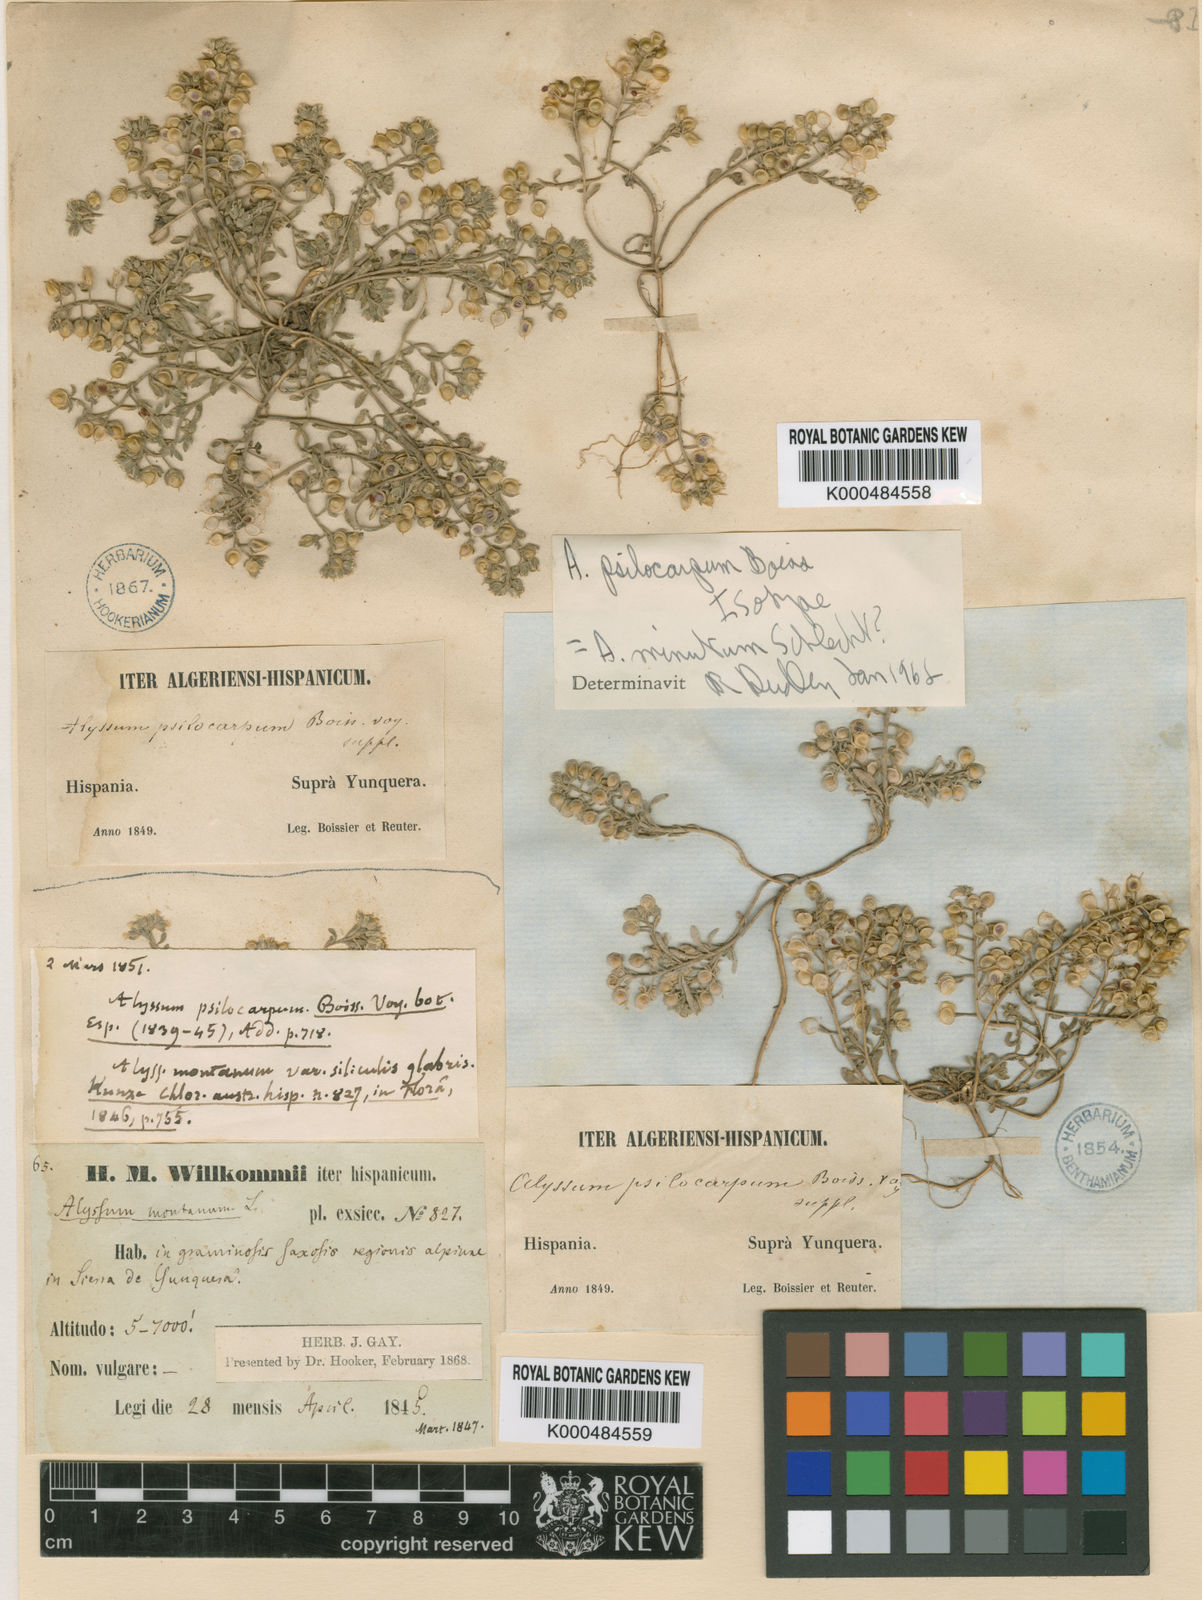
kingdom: Plantae
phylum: Tracheophyta
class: Magnoliopsida
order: Brassicales
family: Brassicaceae
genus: Alyssum
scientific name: Alyssum minutum
